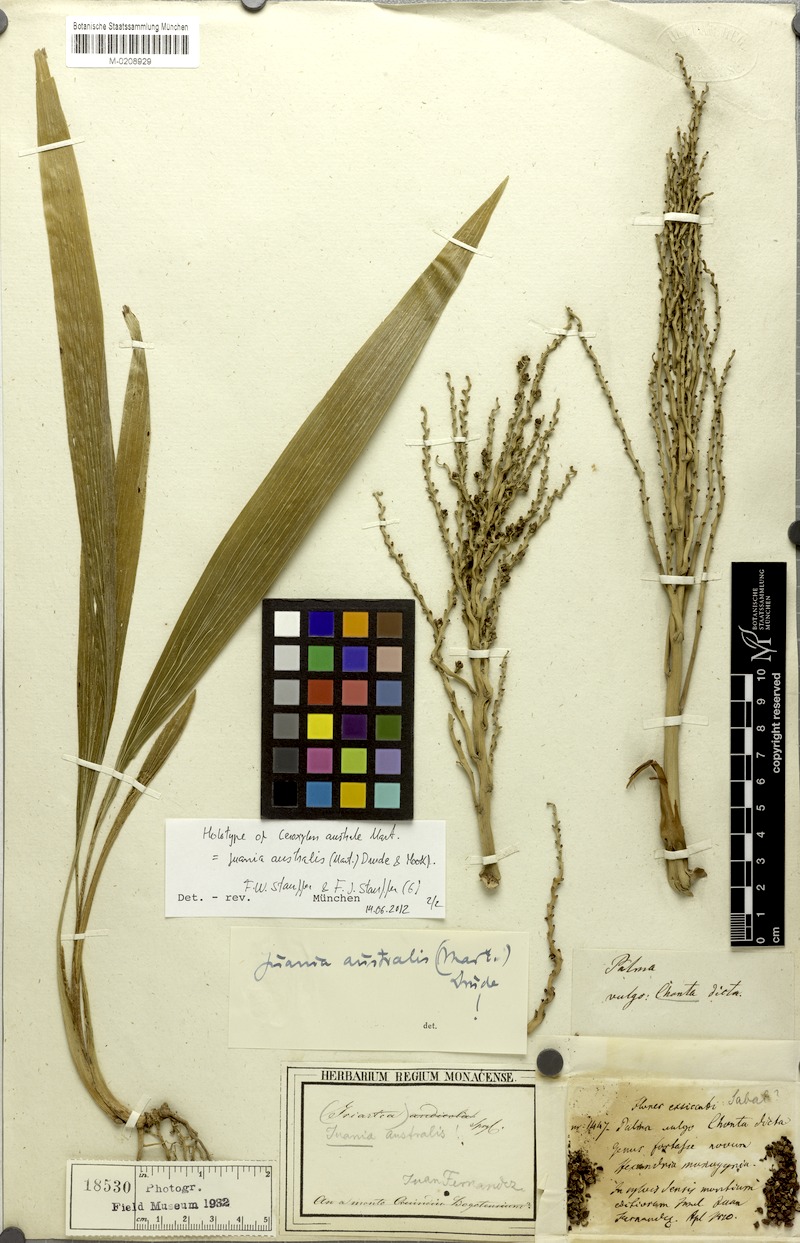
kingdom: Plantae
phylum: Tracheophyta
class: Liliopsida
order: Arecales
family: Arecaceae
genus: Juania
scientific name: Juania australis
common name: Chonta palm
